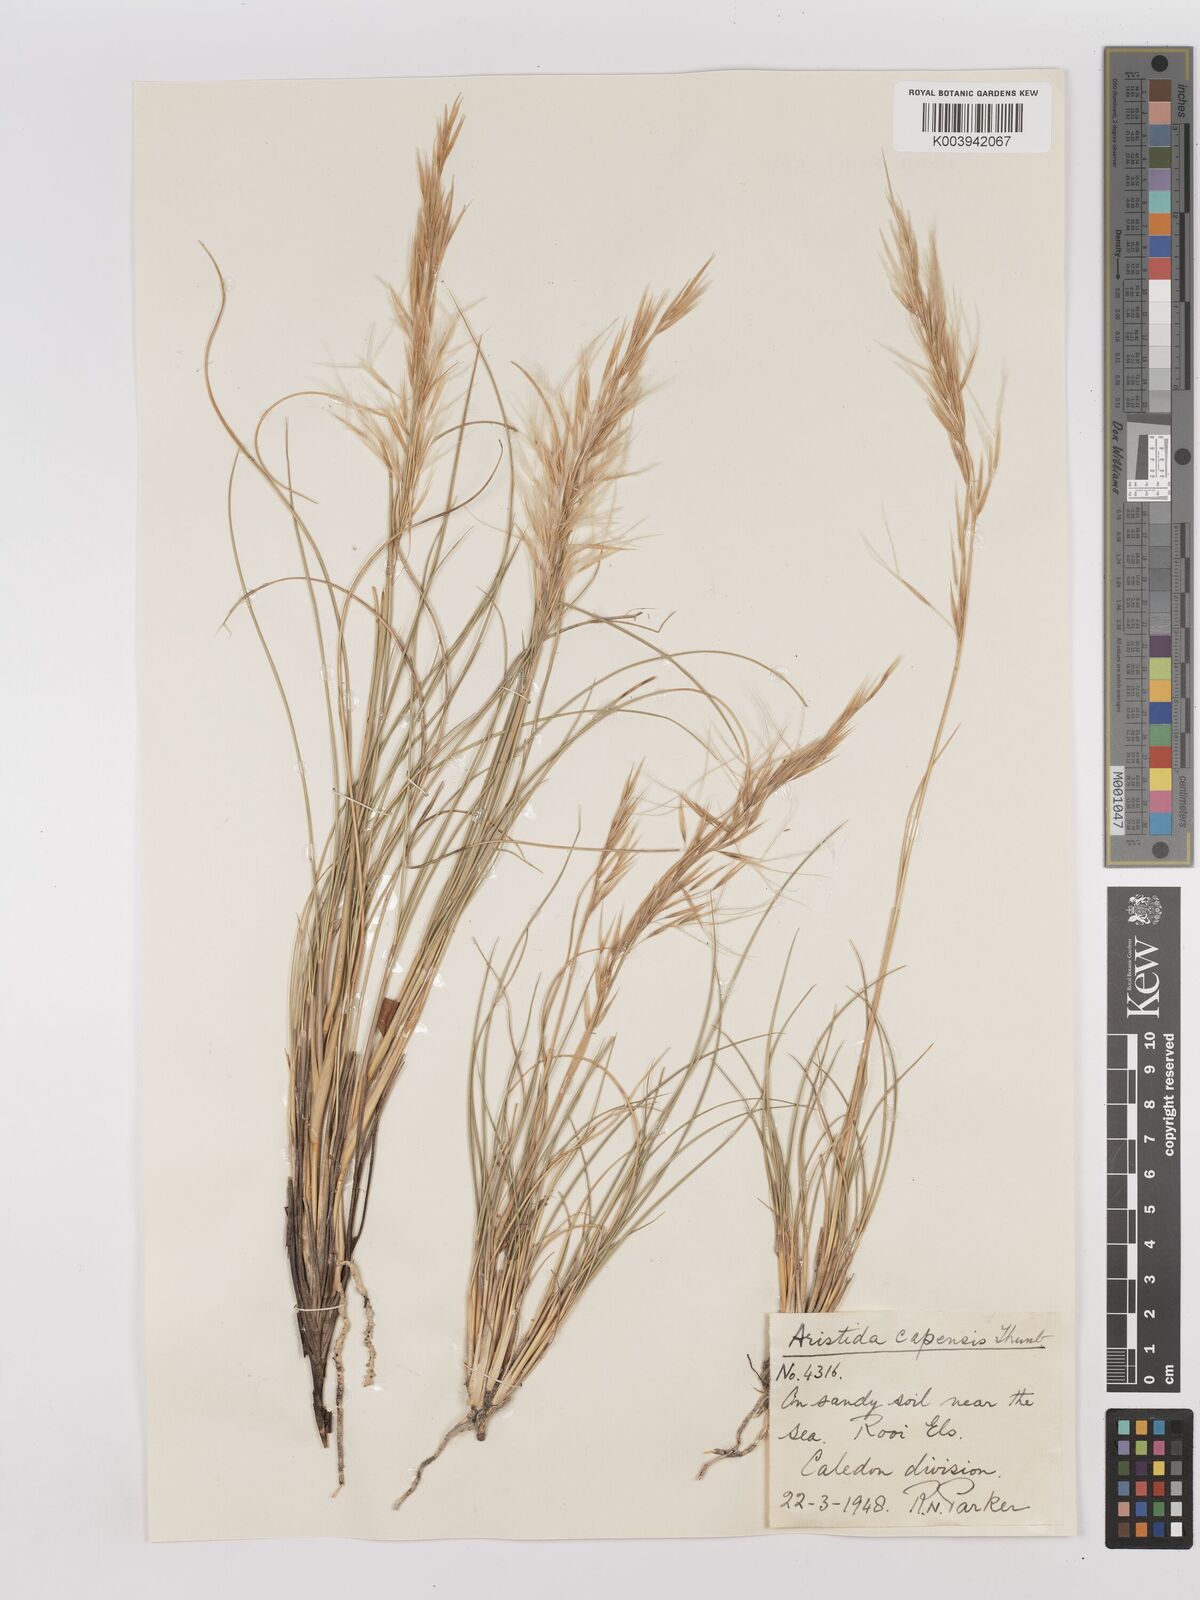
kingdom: Plantae
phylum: Tracheophyta
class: Liliopsida
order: Poales
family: Poaceae
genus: Stipagrostis
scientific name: Stipagrostis zeyheri
